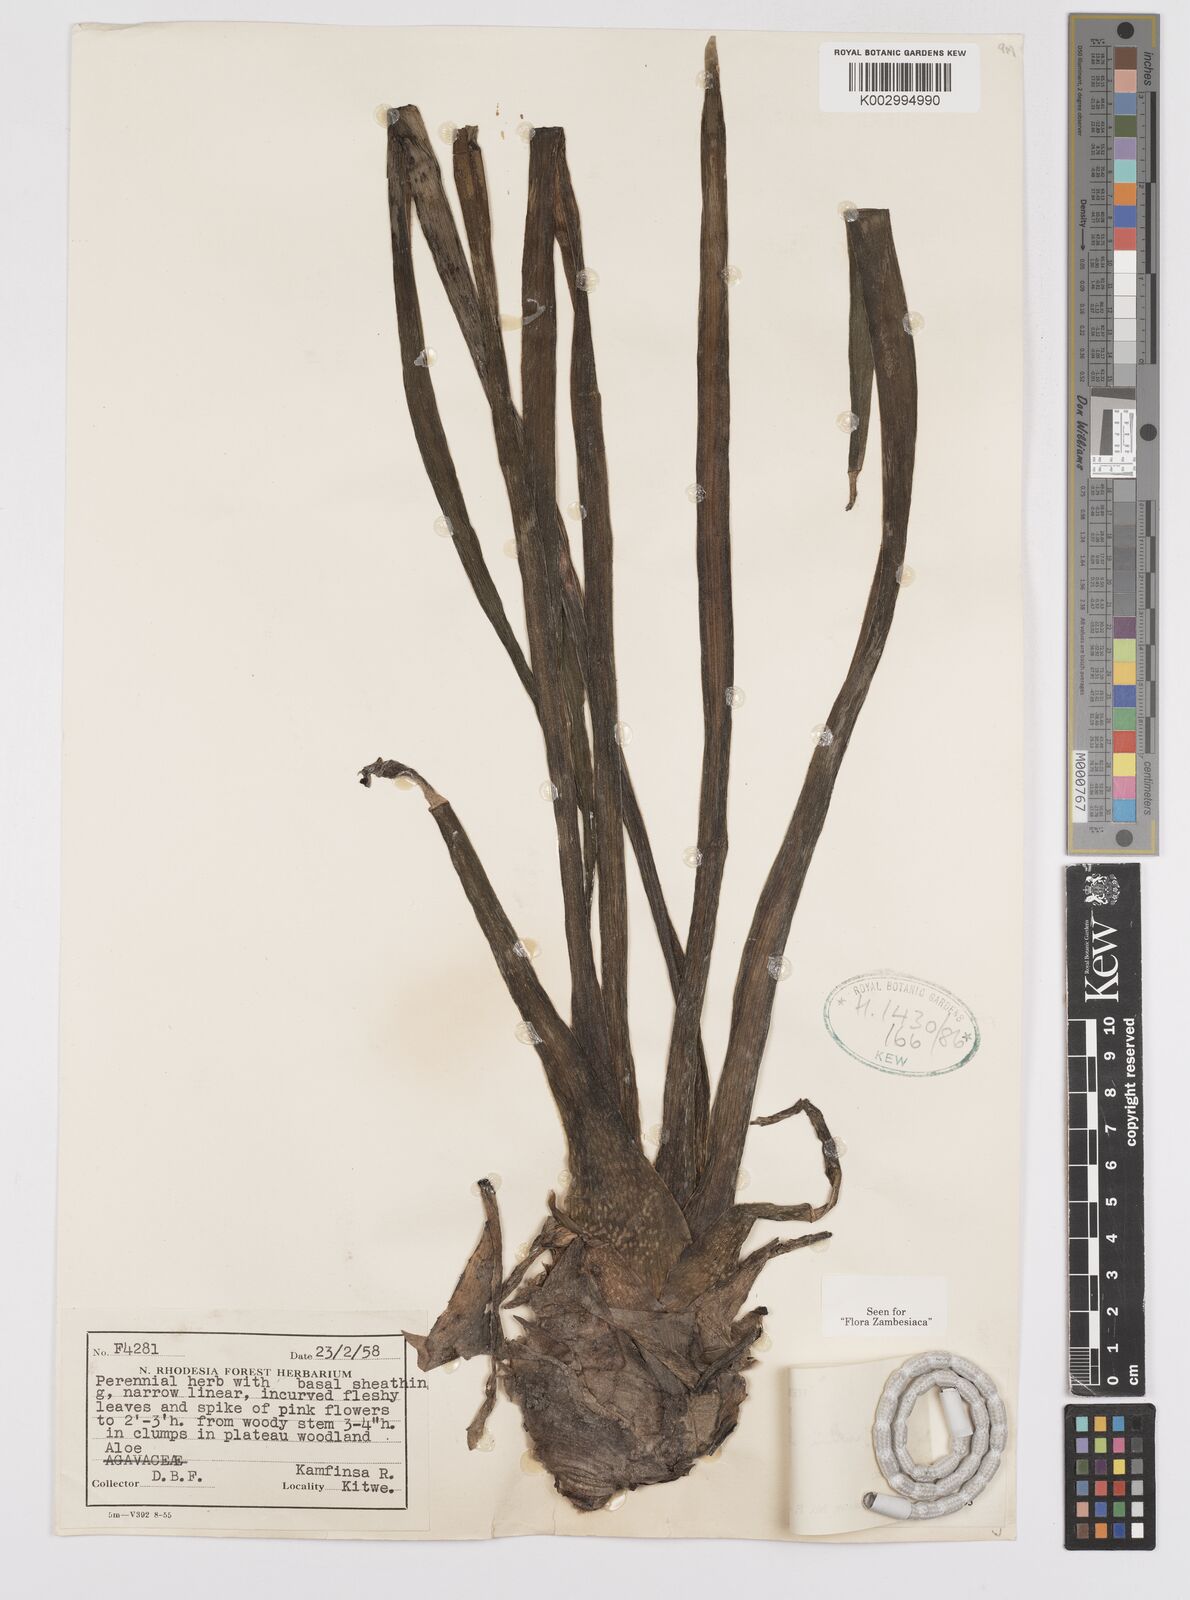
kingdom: Plantae
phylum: Tracheophyta
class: Liliopsida
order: Asparagales
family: Asphodelaceae
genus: Aloe
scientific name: Aloe nuttii
